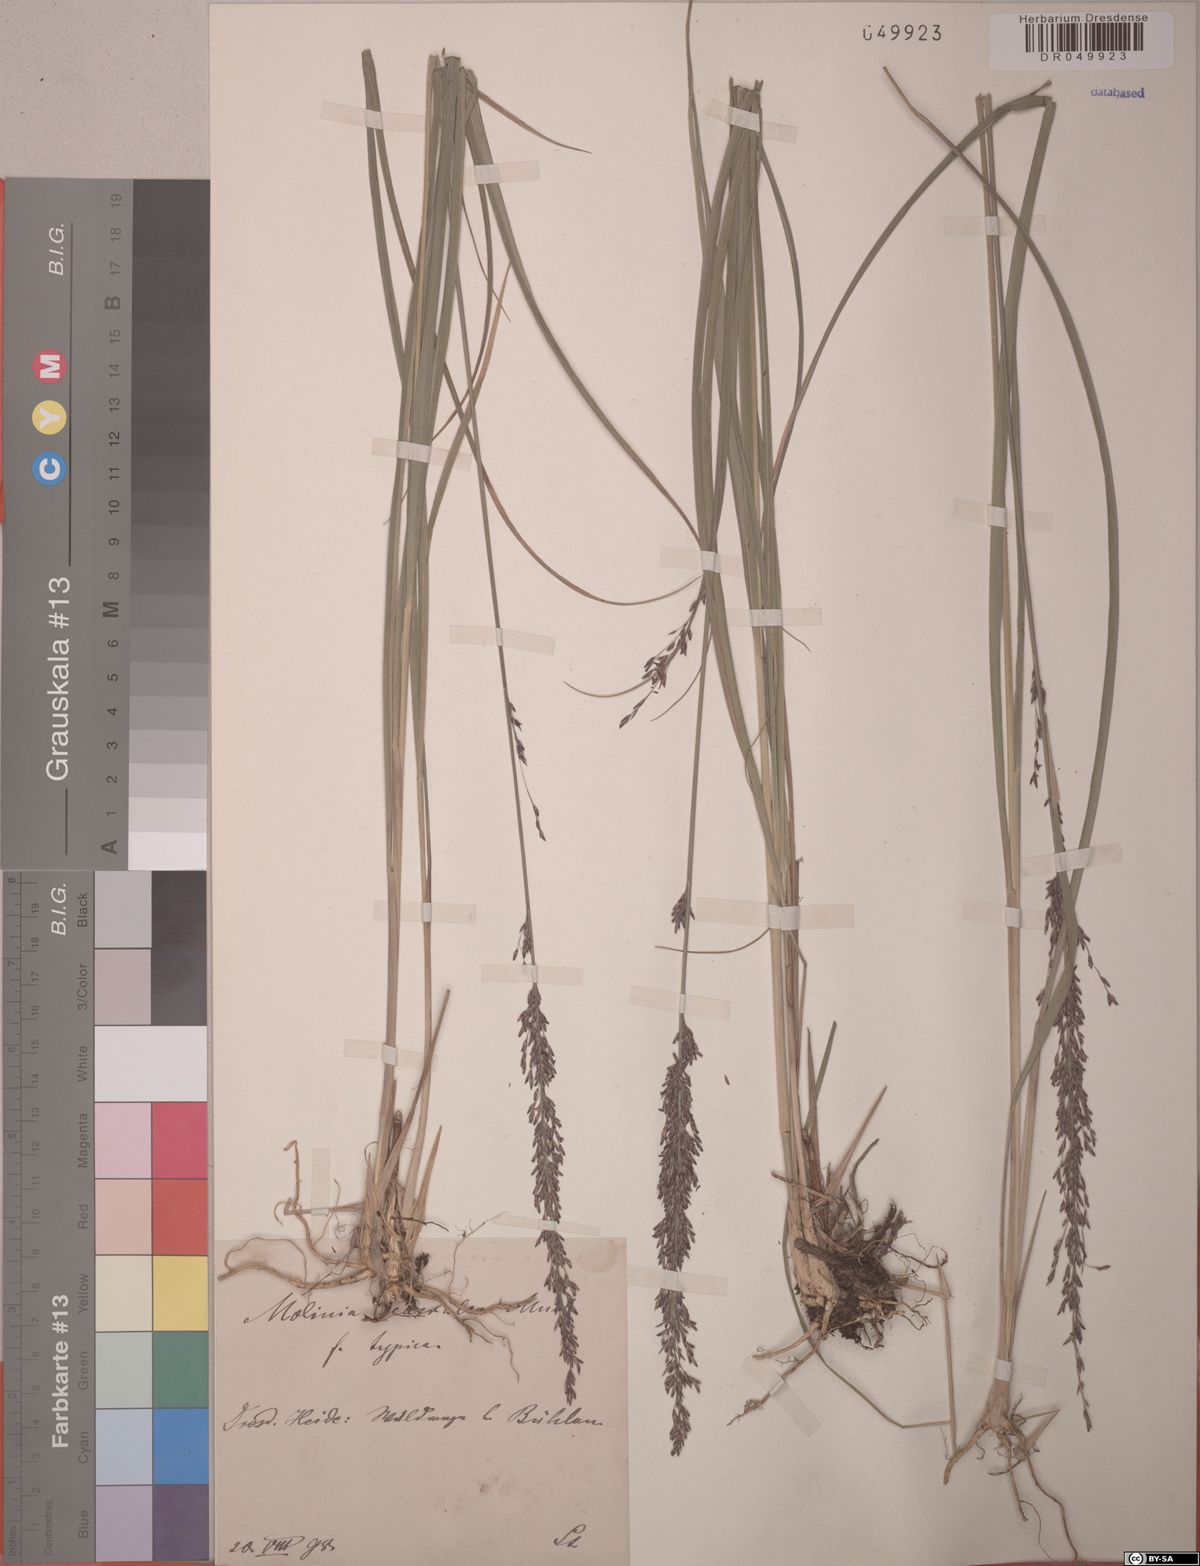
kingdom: Plantae
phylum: Tracheophyta
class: Liliopsida
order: Poales
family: Poaceae
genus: Molinia
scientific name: Molinia caerulea
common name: Purple moor-grass
